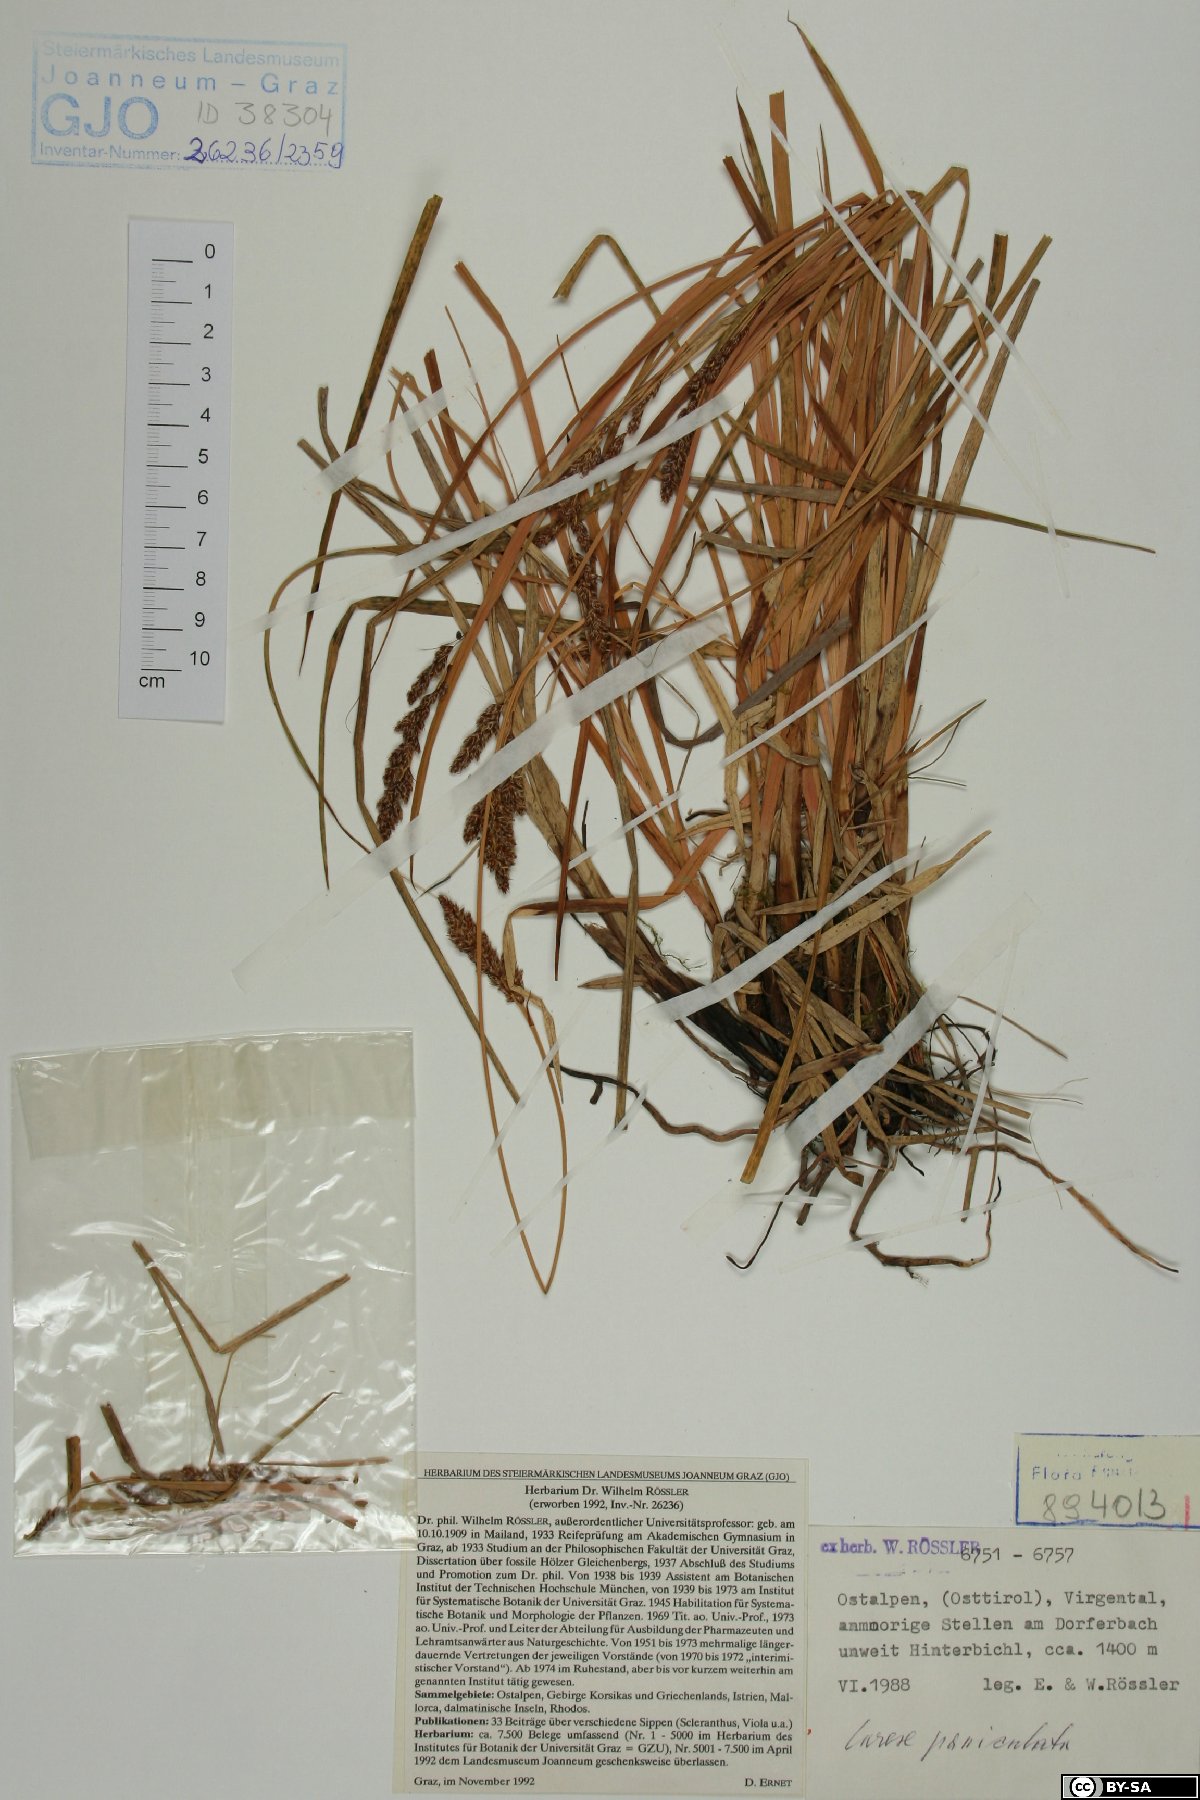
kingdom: Plantae
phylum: Tracheophyta
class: Liliopsida
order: Poales
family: Cyperaceae
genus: Carex
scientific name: Carex paniculata
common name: Greater tussock-sedge
